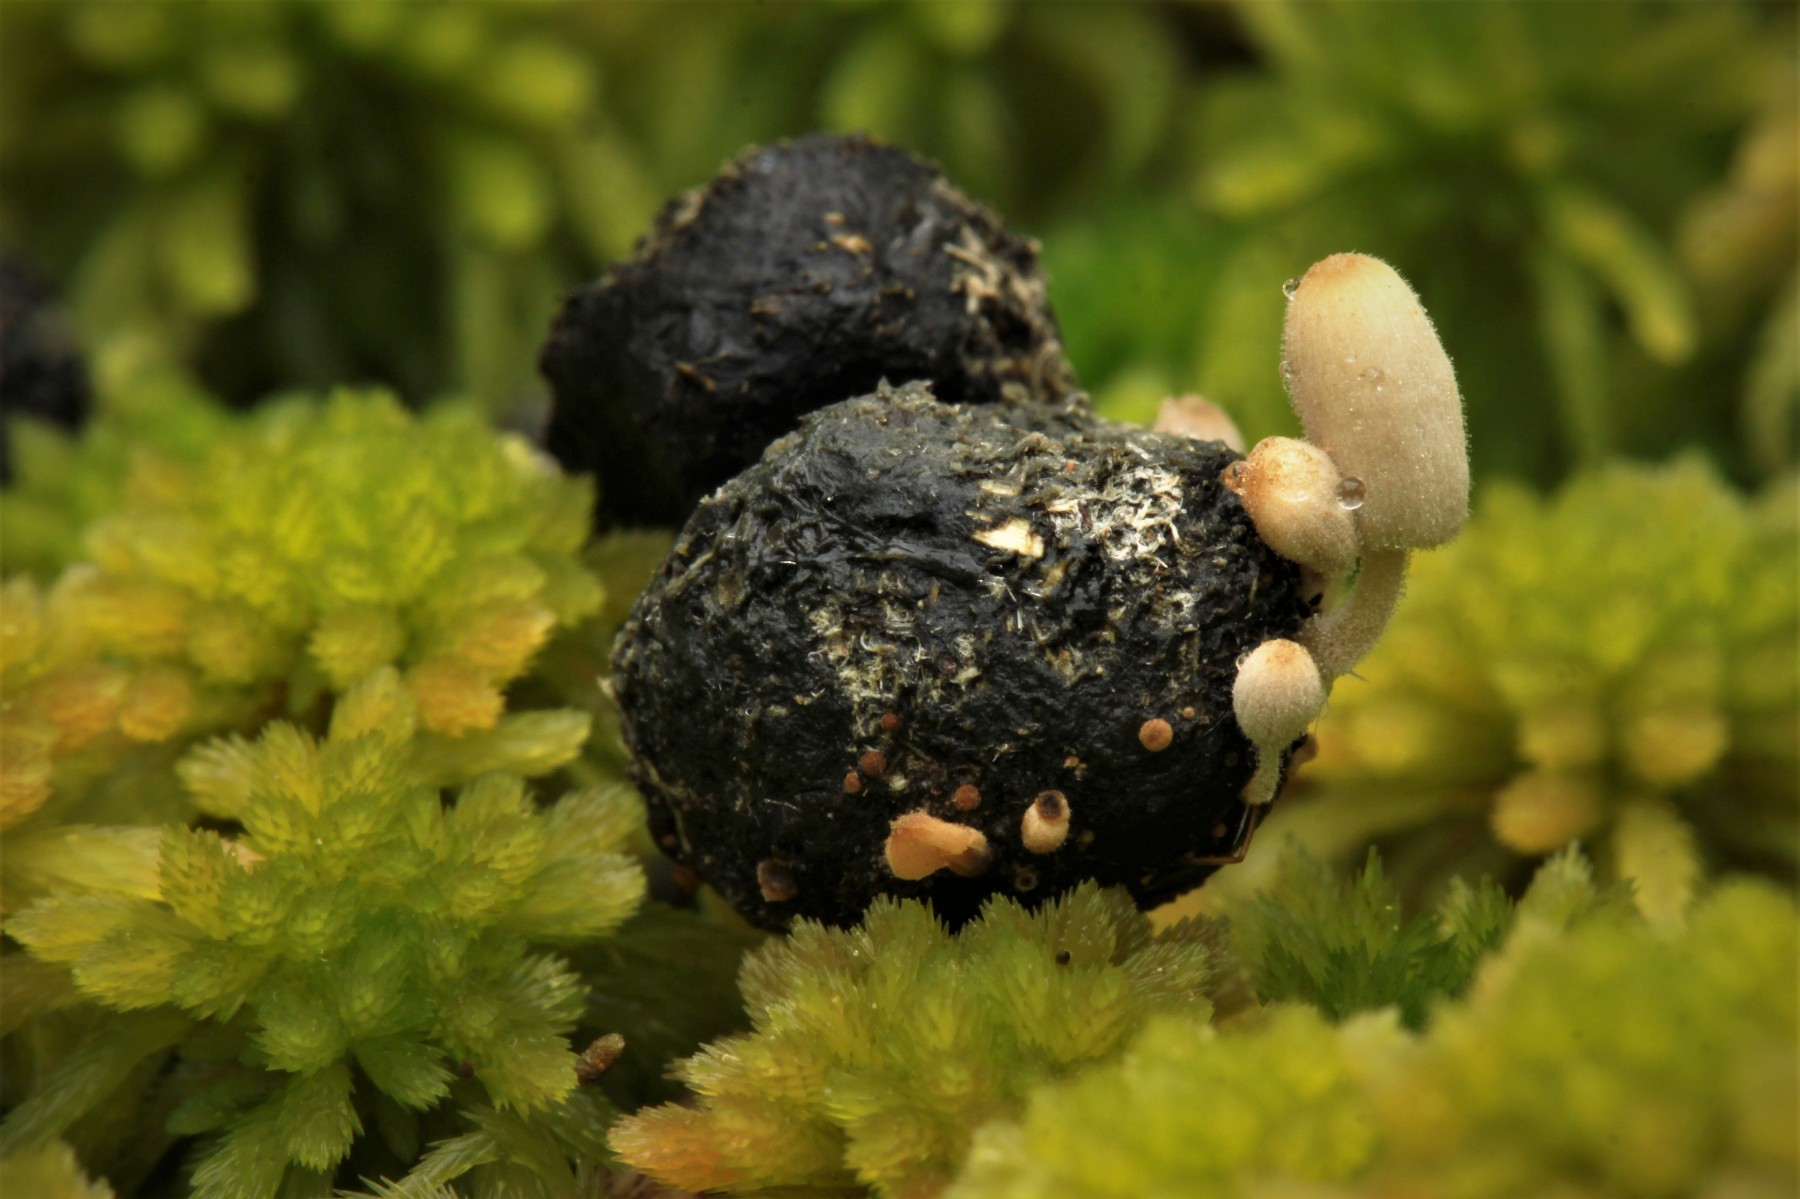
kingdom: Fungi
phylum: Basidiomycota
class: Agaricomycetes
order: Agaricales
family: Psathyrellaceae
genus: Coprinellus
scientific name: Coprinellus pusillulus
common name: lillebitte blækhat
